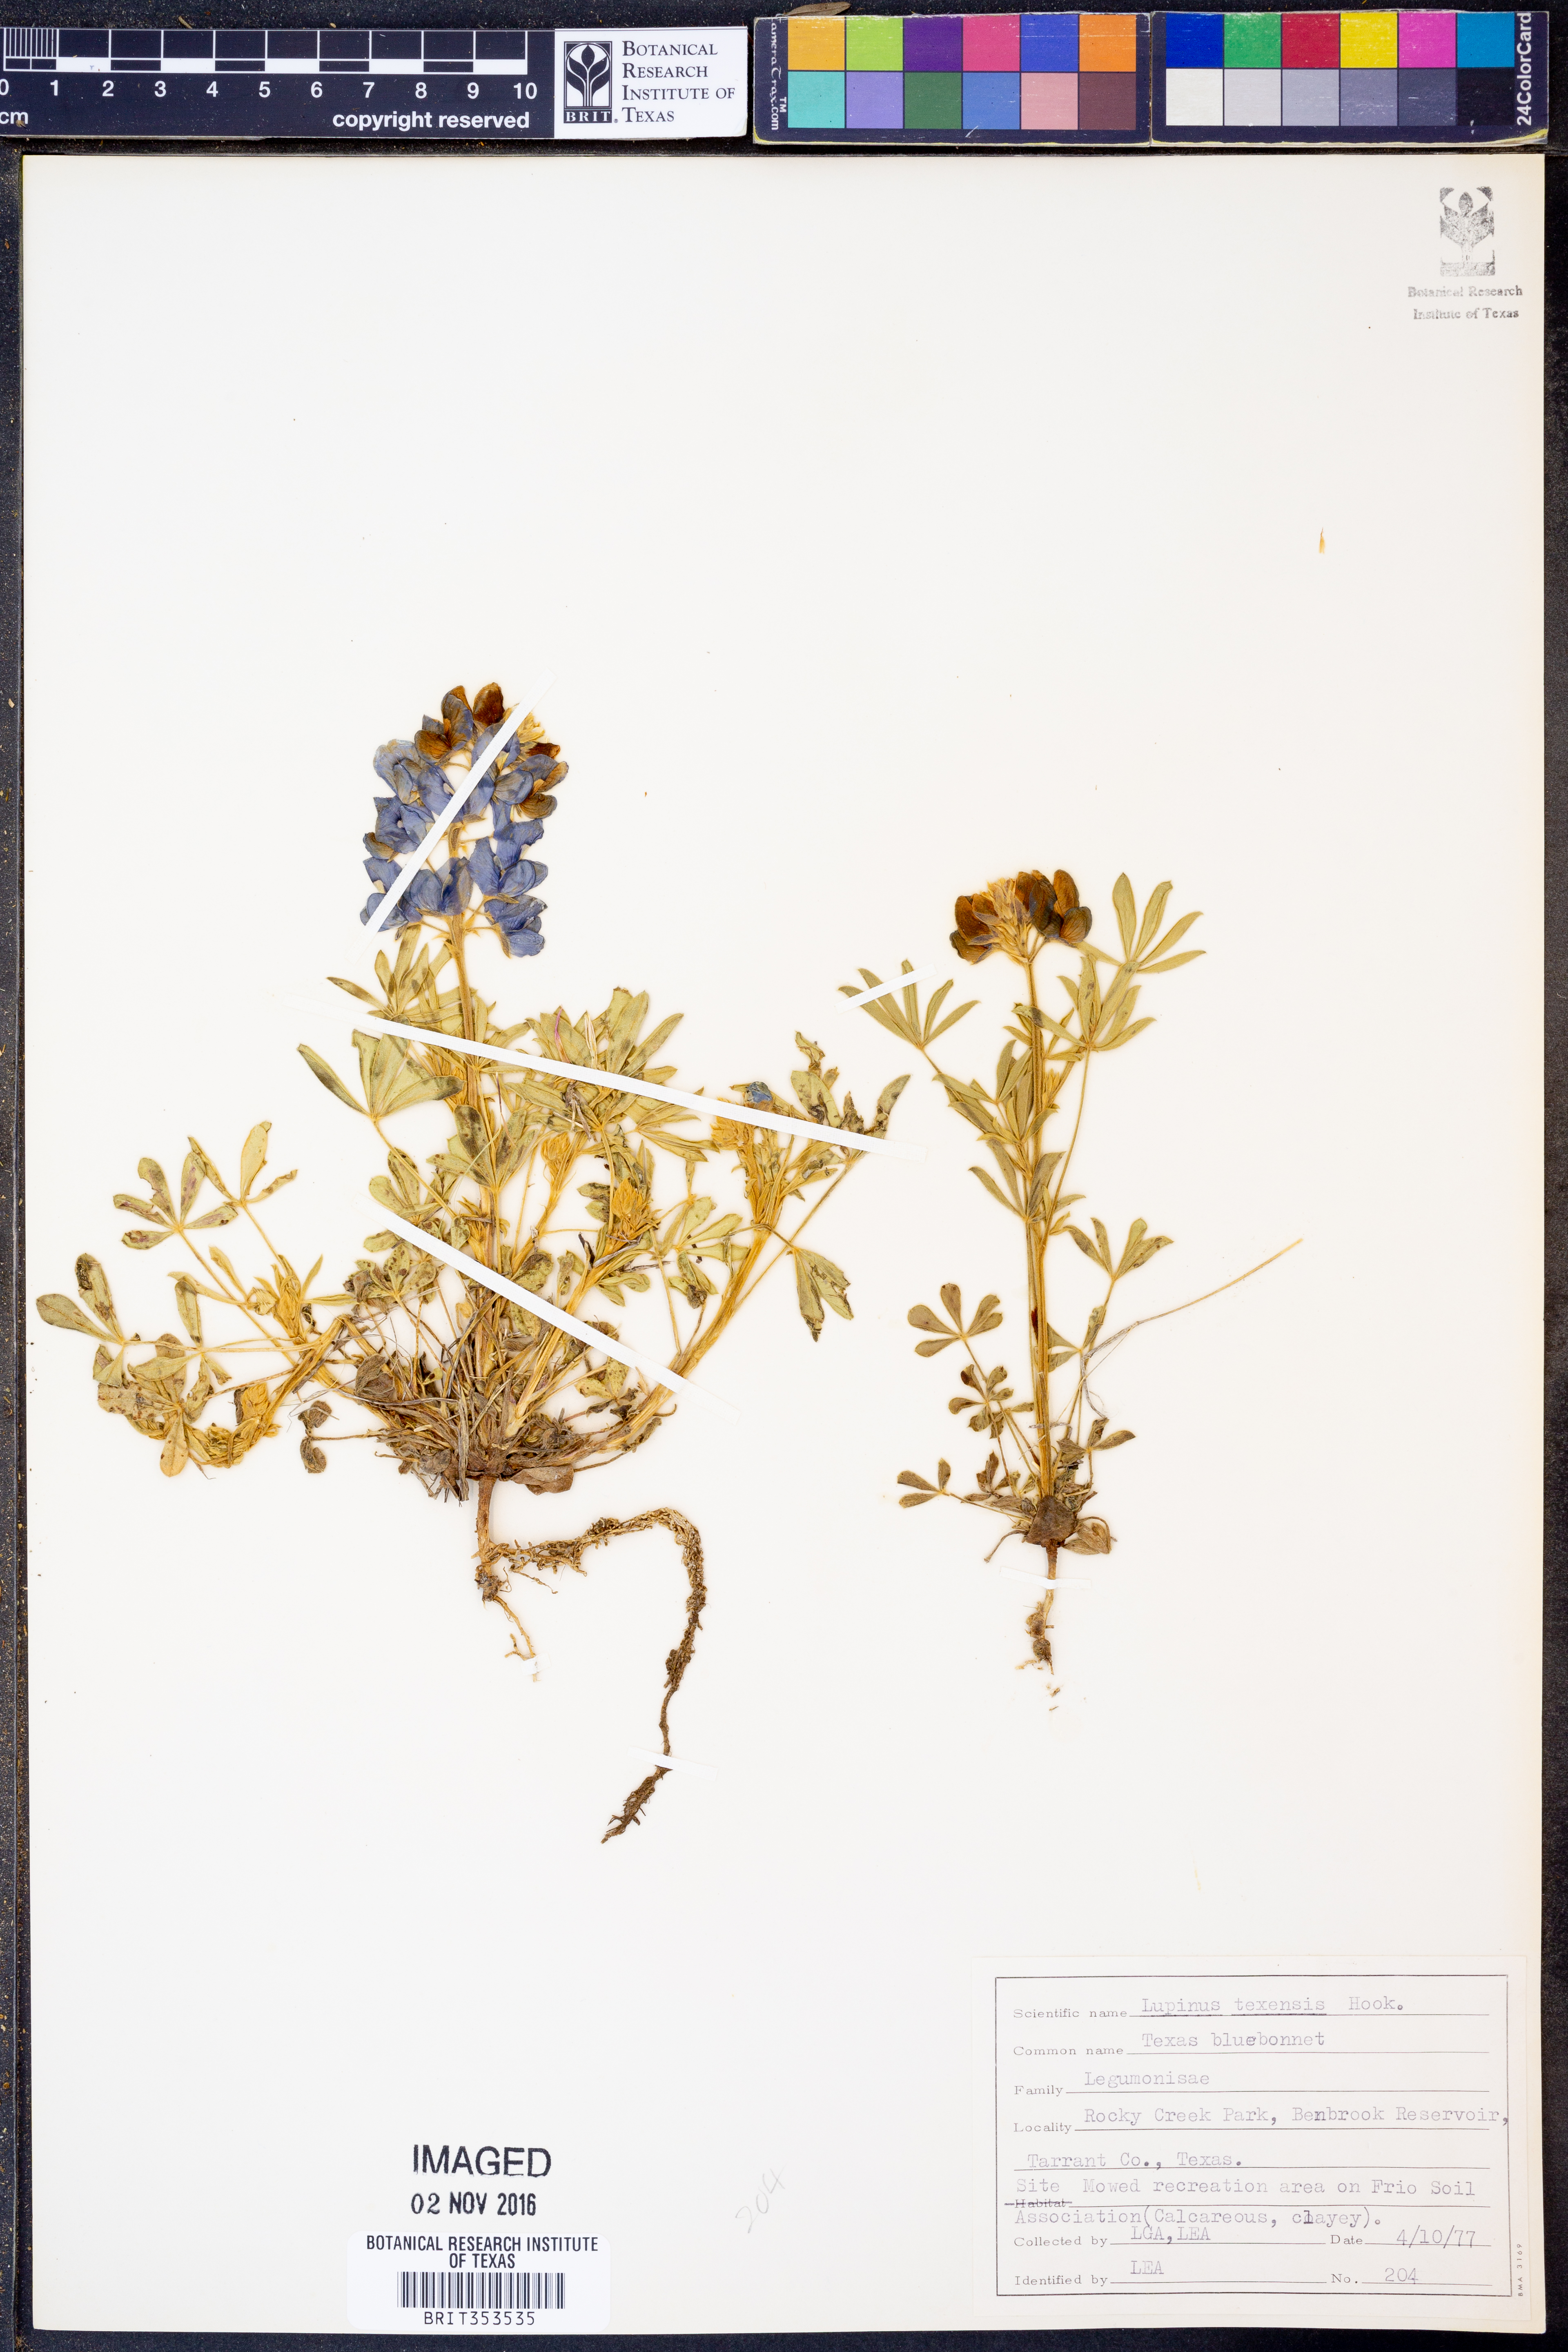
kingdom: Plantae
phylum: Tracheophyta
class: Magnoliopsida
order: Fabales
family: Fabaceae
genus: Lupinus
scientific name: Lupinus texensis
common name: Texas bluebonnet
